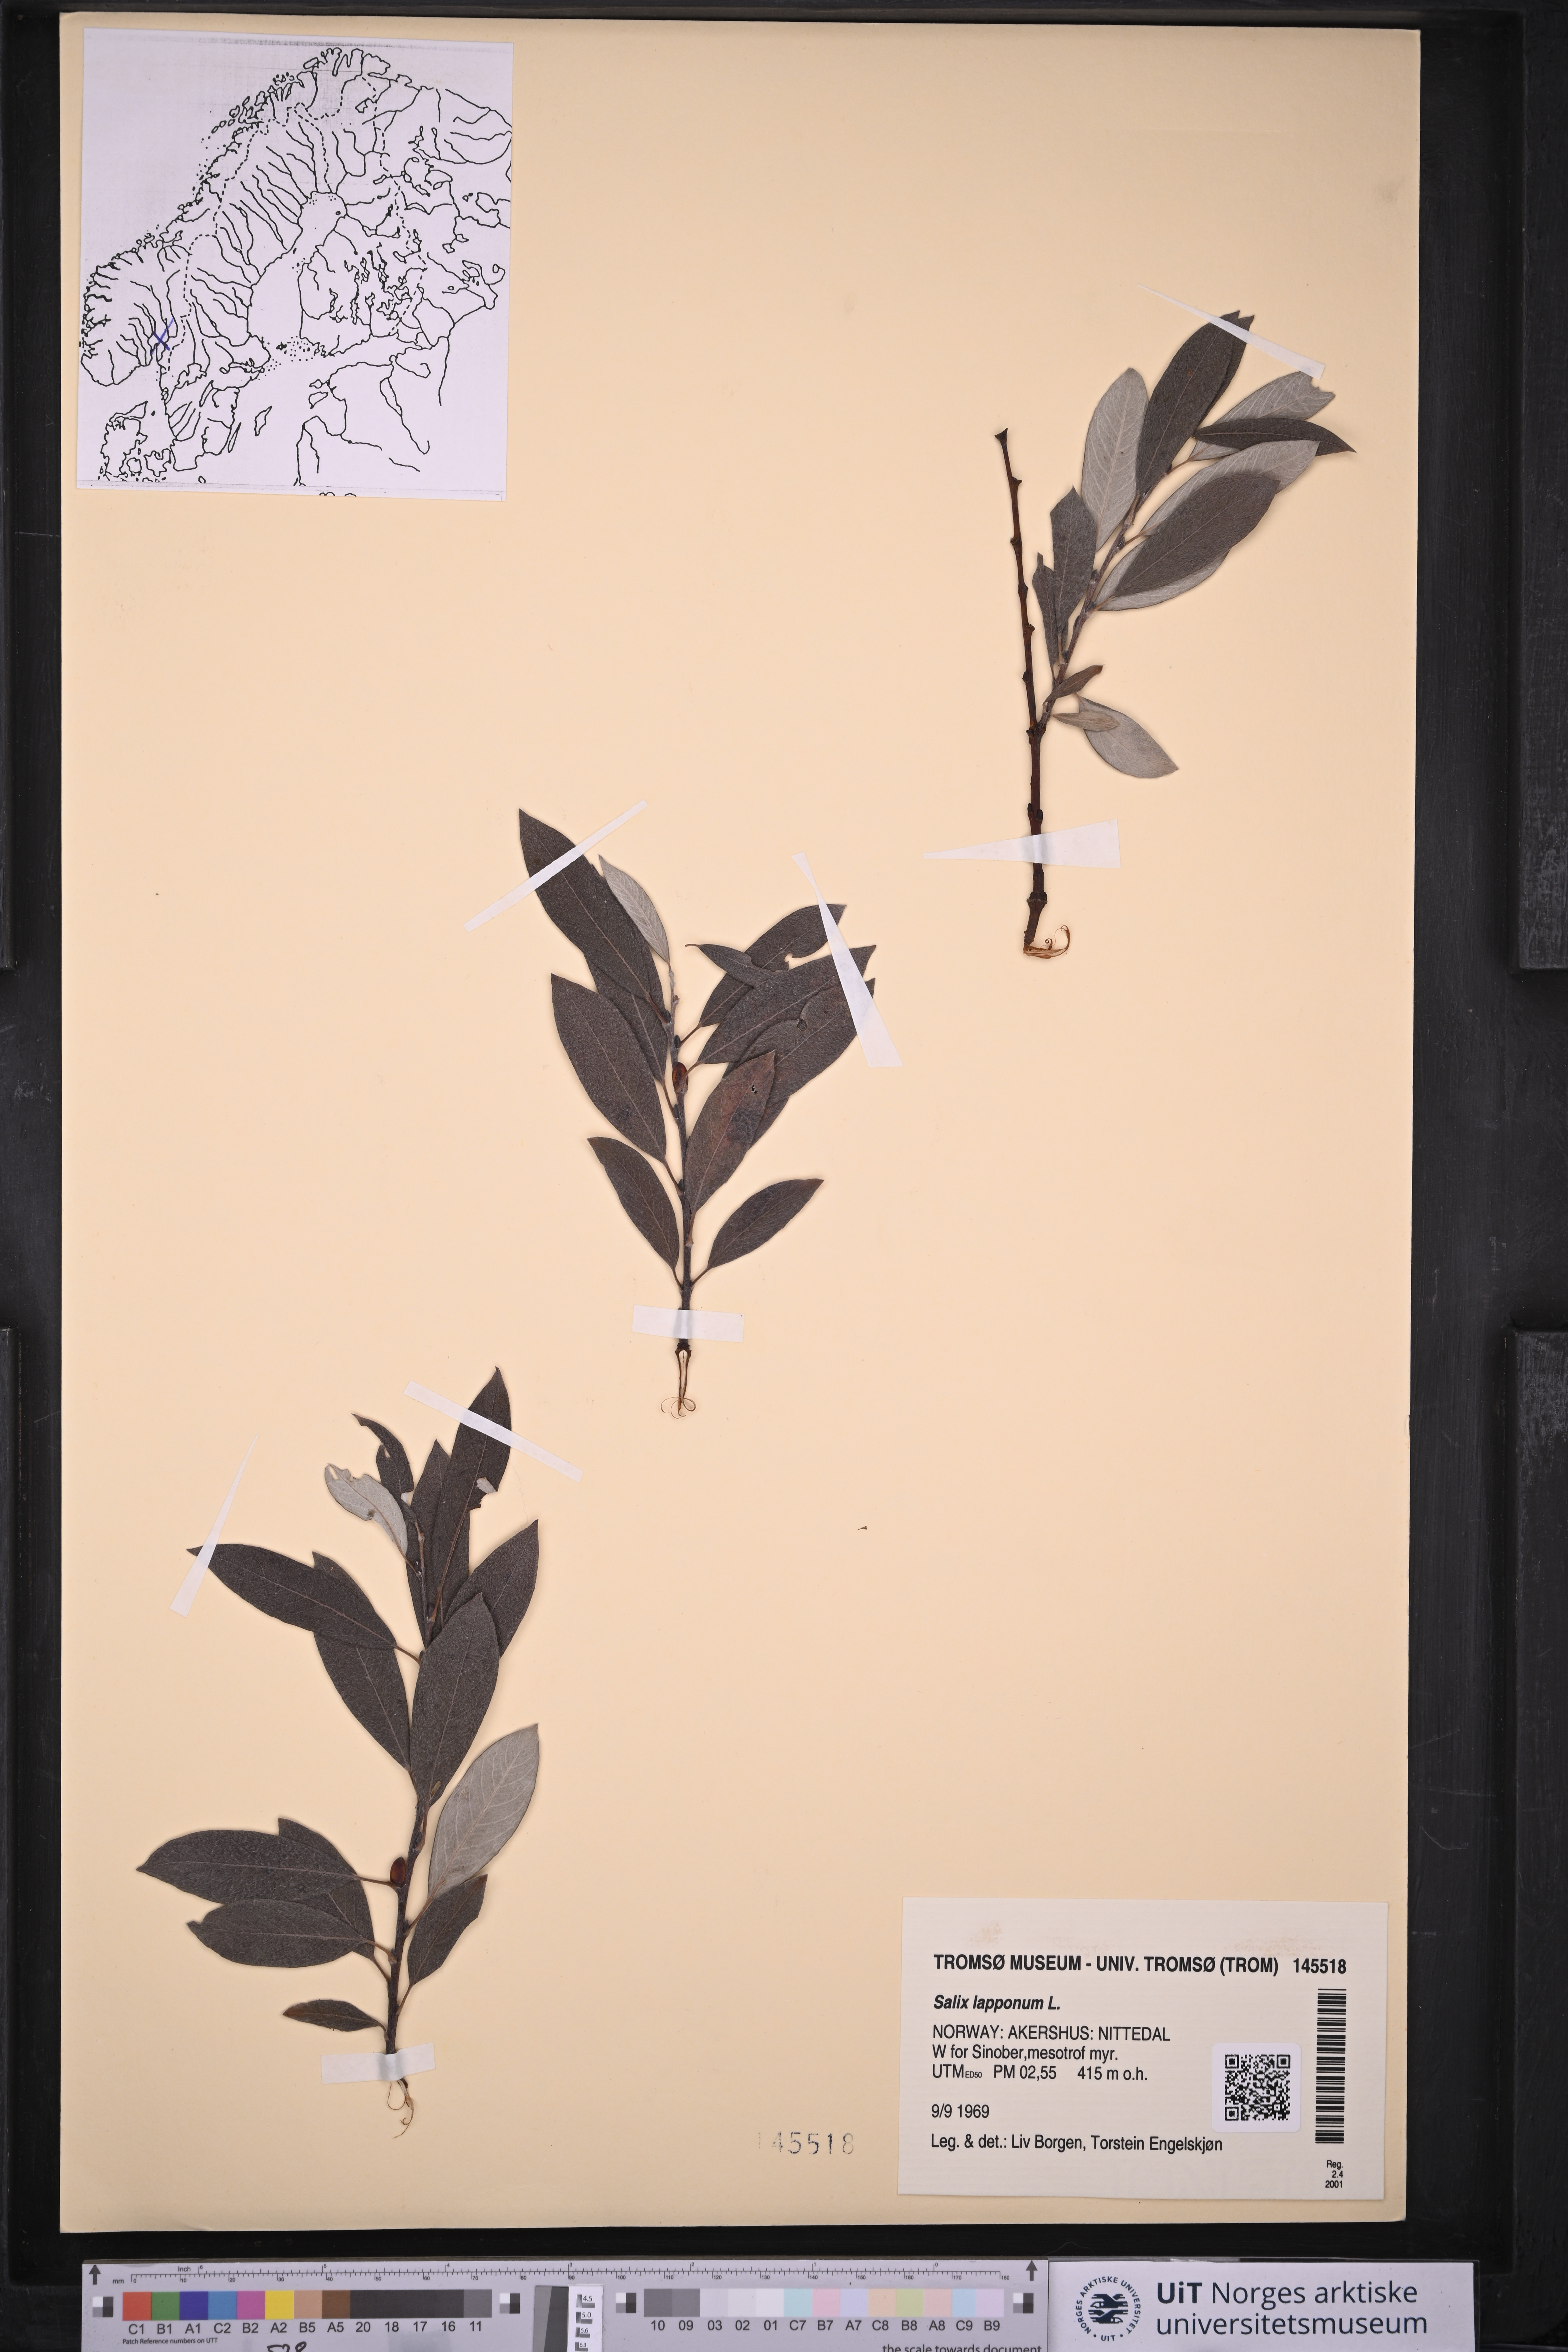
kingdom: Plantae
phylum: Tracheophyta
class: Magnoliopsida
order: Malpighiales
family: Salicaceae
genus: Salix
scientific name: Salix lapponum
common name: Downy willow
